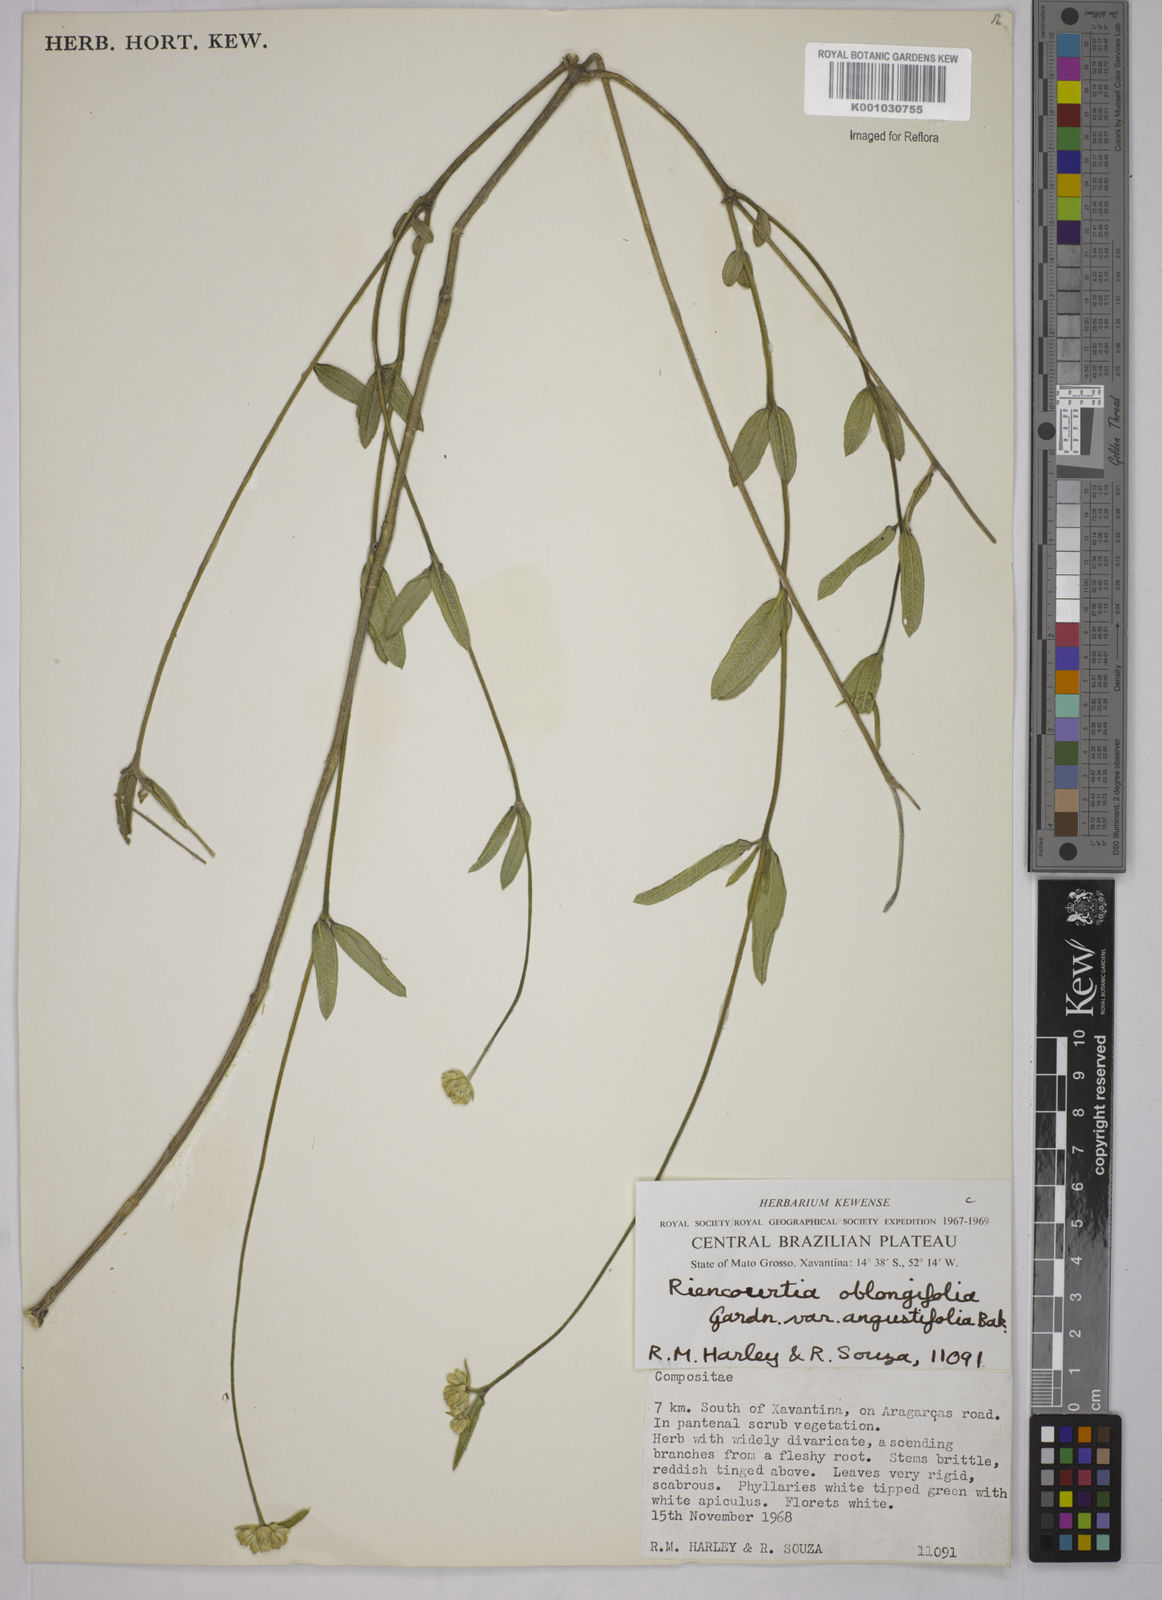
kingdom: Plantae
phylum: Tracheophyta
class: Magnoliopsida
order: Asterales
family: Asteraceae
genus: Riencourtia
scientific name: Riencourtia oblongifolia
